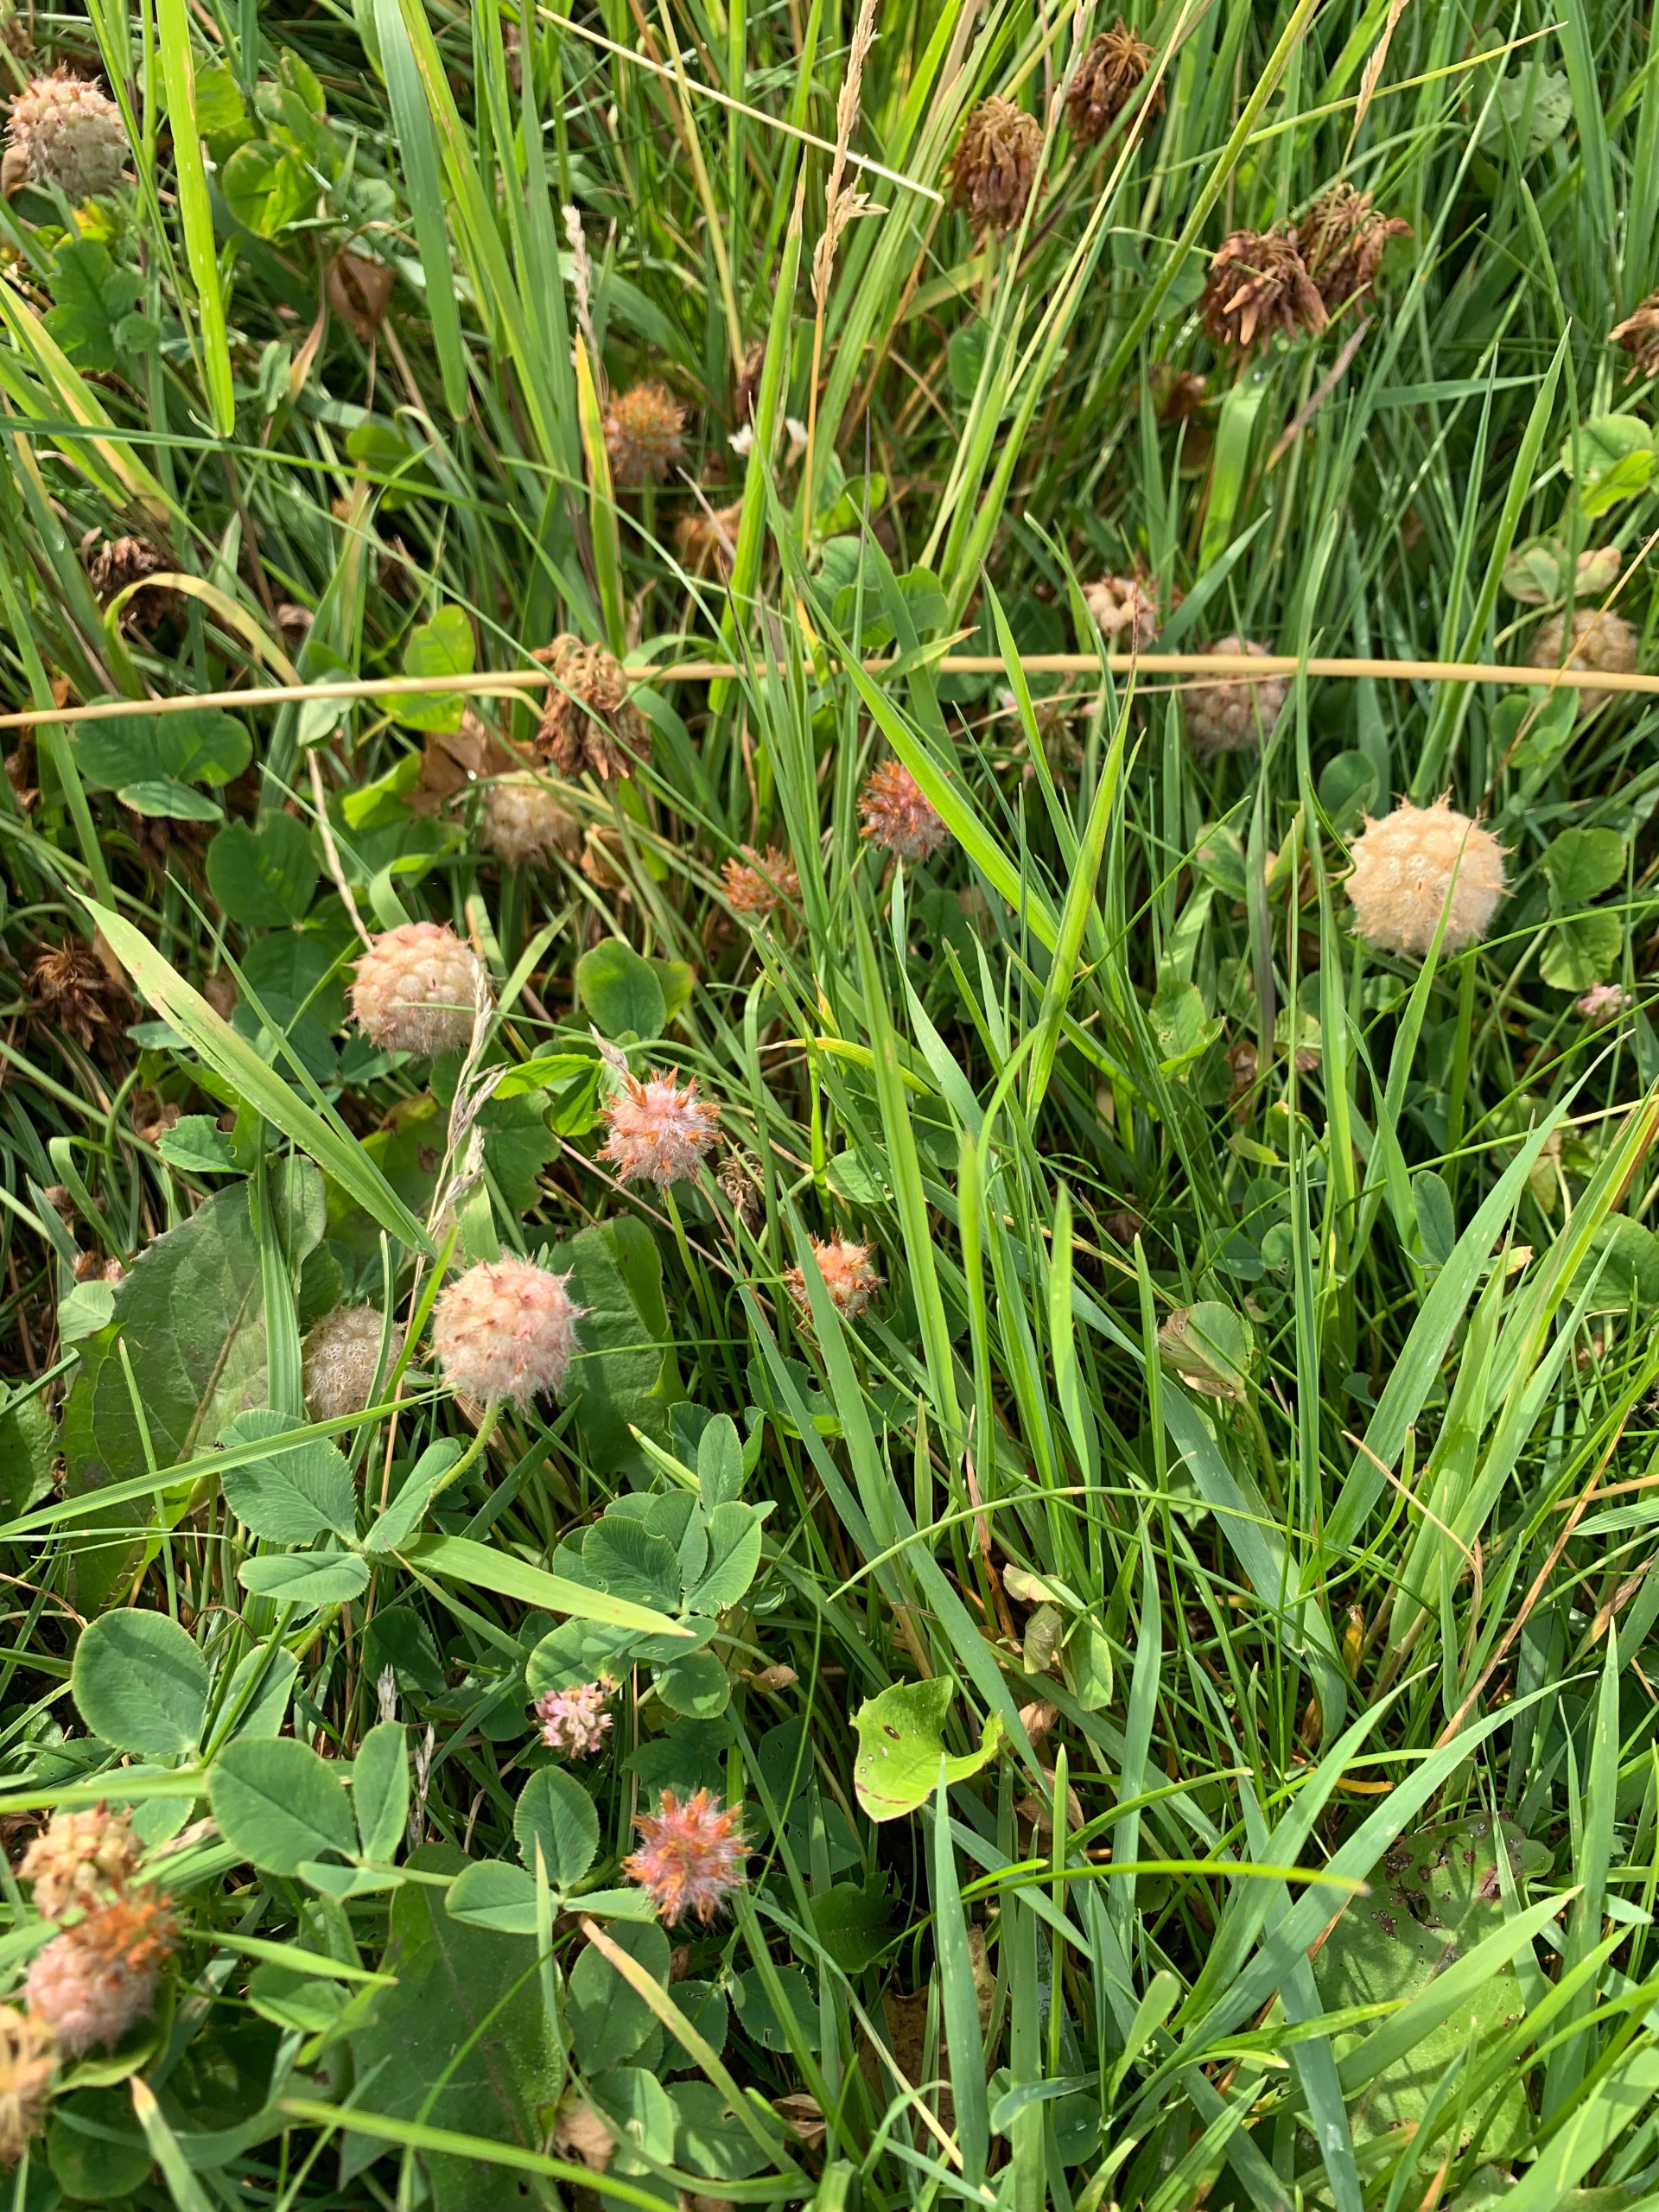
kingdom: Plantae
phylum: Tracheophyta
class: Magnoliopsida
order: Fabales
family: Fabaceae
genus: Trifolium
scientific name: Trifolium fragiferum
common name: Jordbær-kløver
